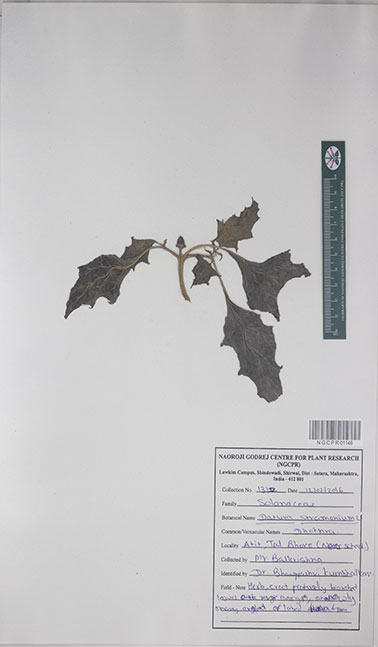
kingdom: Plantae
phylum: Tracheophyta
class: Magnoliopsida
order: Solanales
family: Solanaceae
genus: Datura
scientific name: Datura stramonium
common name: Thorn-apple
